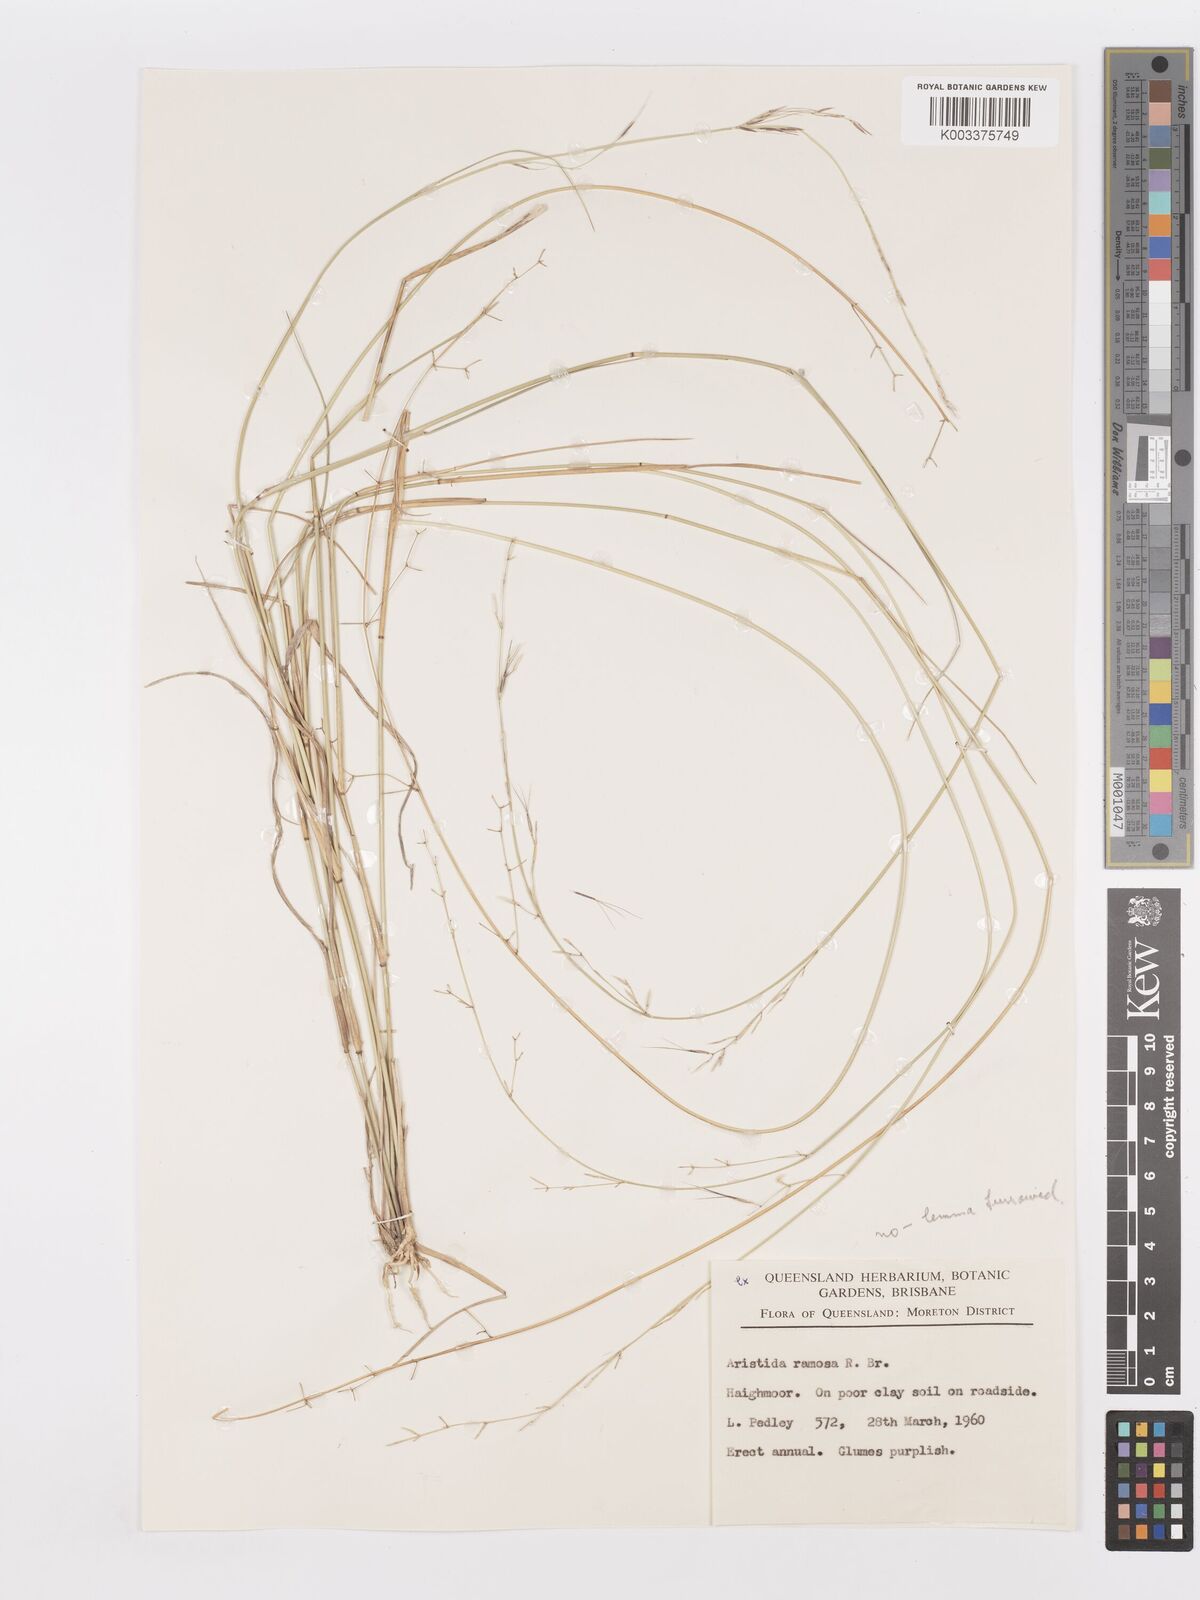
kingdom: Plantae
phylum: Tracheophyta
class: Liliopsida
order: Poales
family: Poaceae
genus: Aristida
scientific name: Aristida
